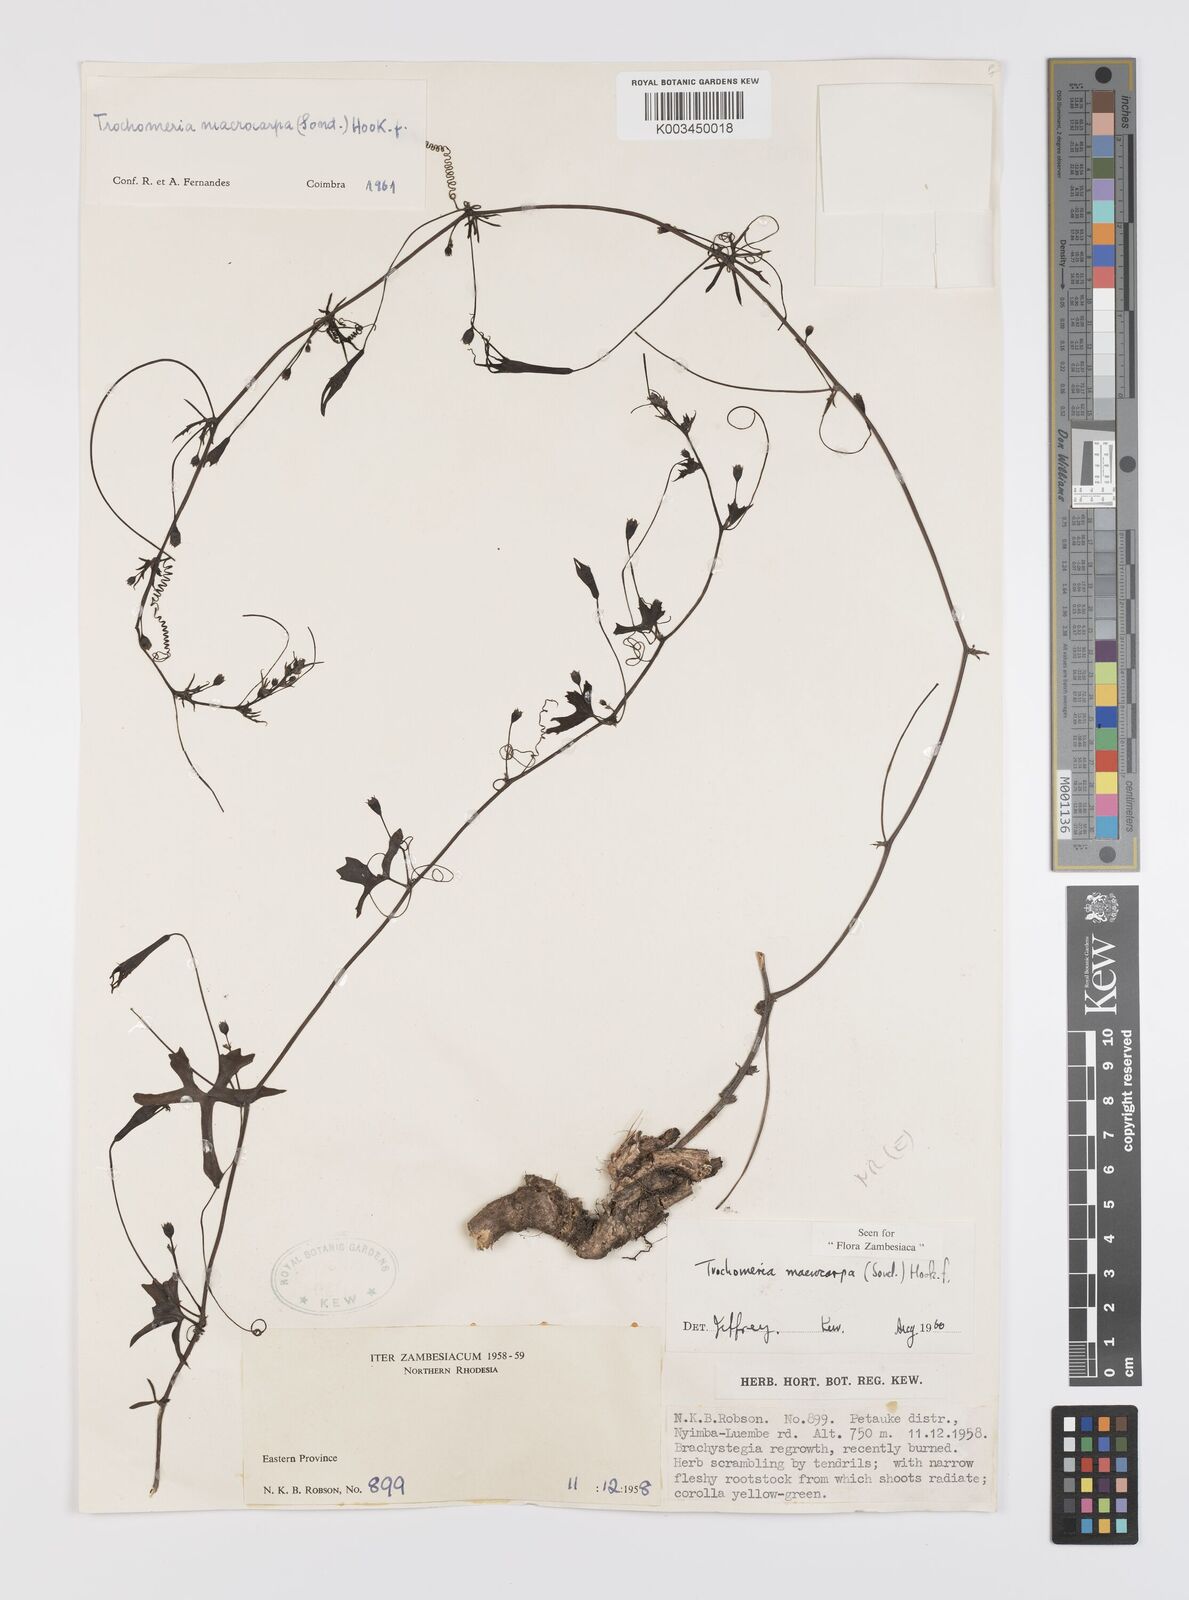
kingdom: Plantae
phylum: Tracheophyta
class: Magnoliopsida
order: Cucurbitales
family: Cucurbitaceae
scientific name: Cucurbitaceae
